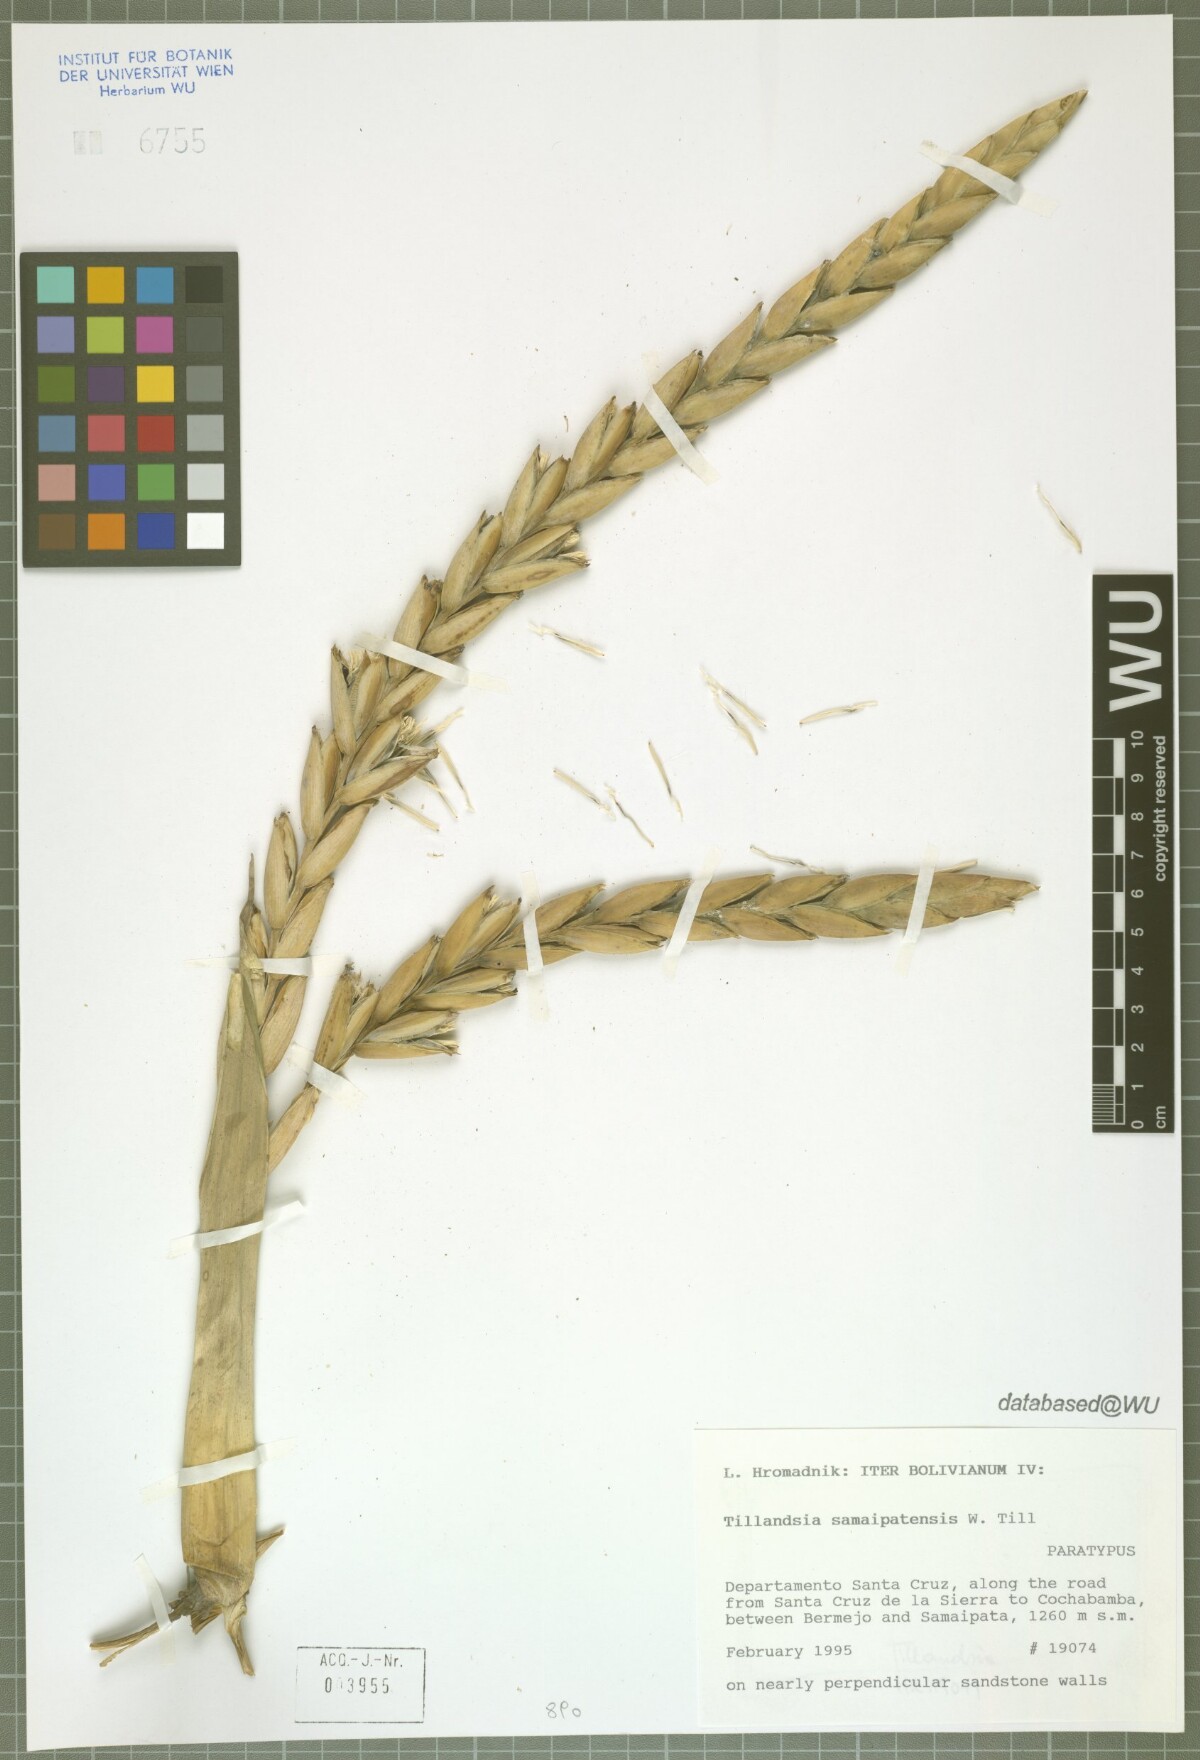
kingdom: Plantae
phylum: Tracheophyta
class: Liliopsida
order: Poales
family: Bromeliaceae
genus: Tillandsia
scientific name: Tillandsia samaipatensis
